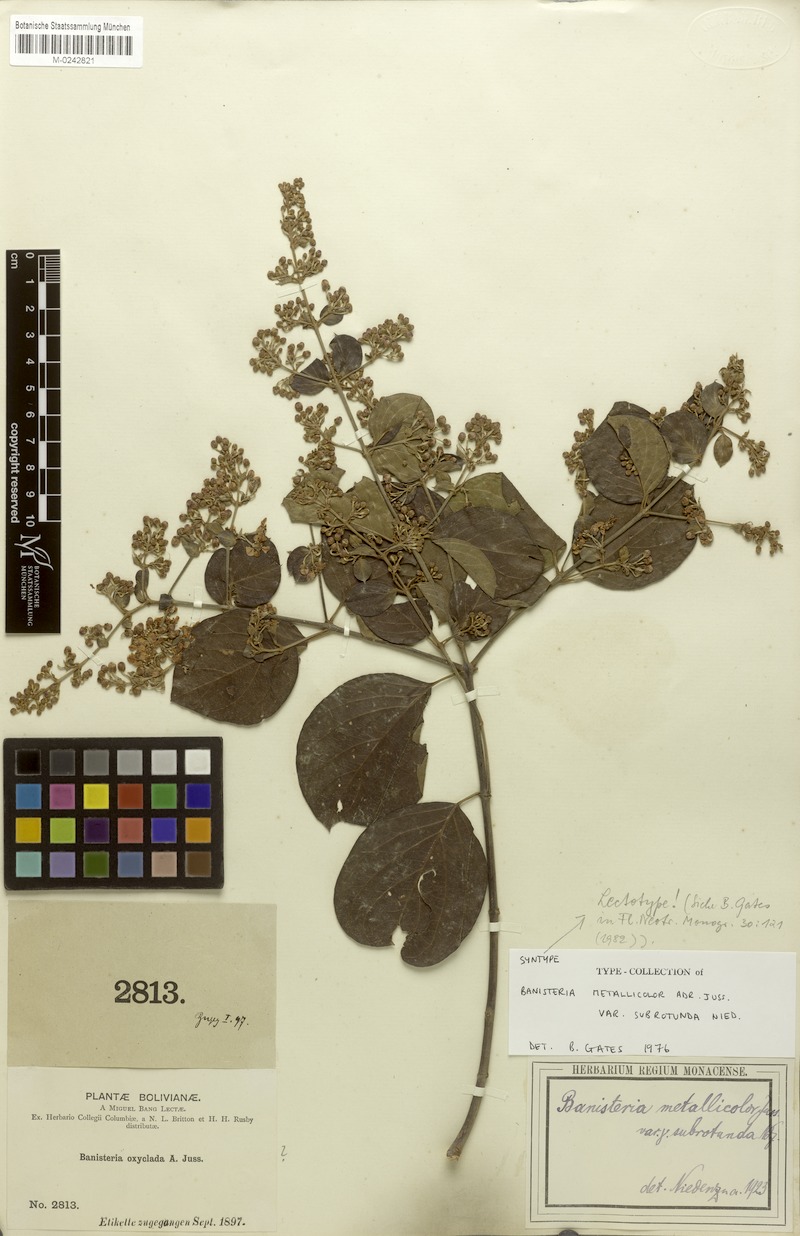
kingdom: Plantae
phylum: Tracheophyta
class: Magnoliopsida
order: Malpighiales
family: Malpighiaceae
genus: Banisteriopsis
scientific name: Banisteriopsis muricata
